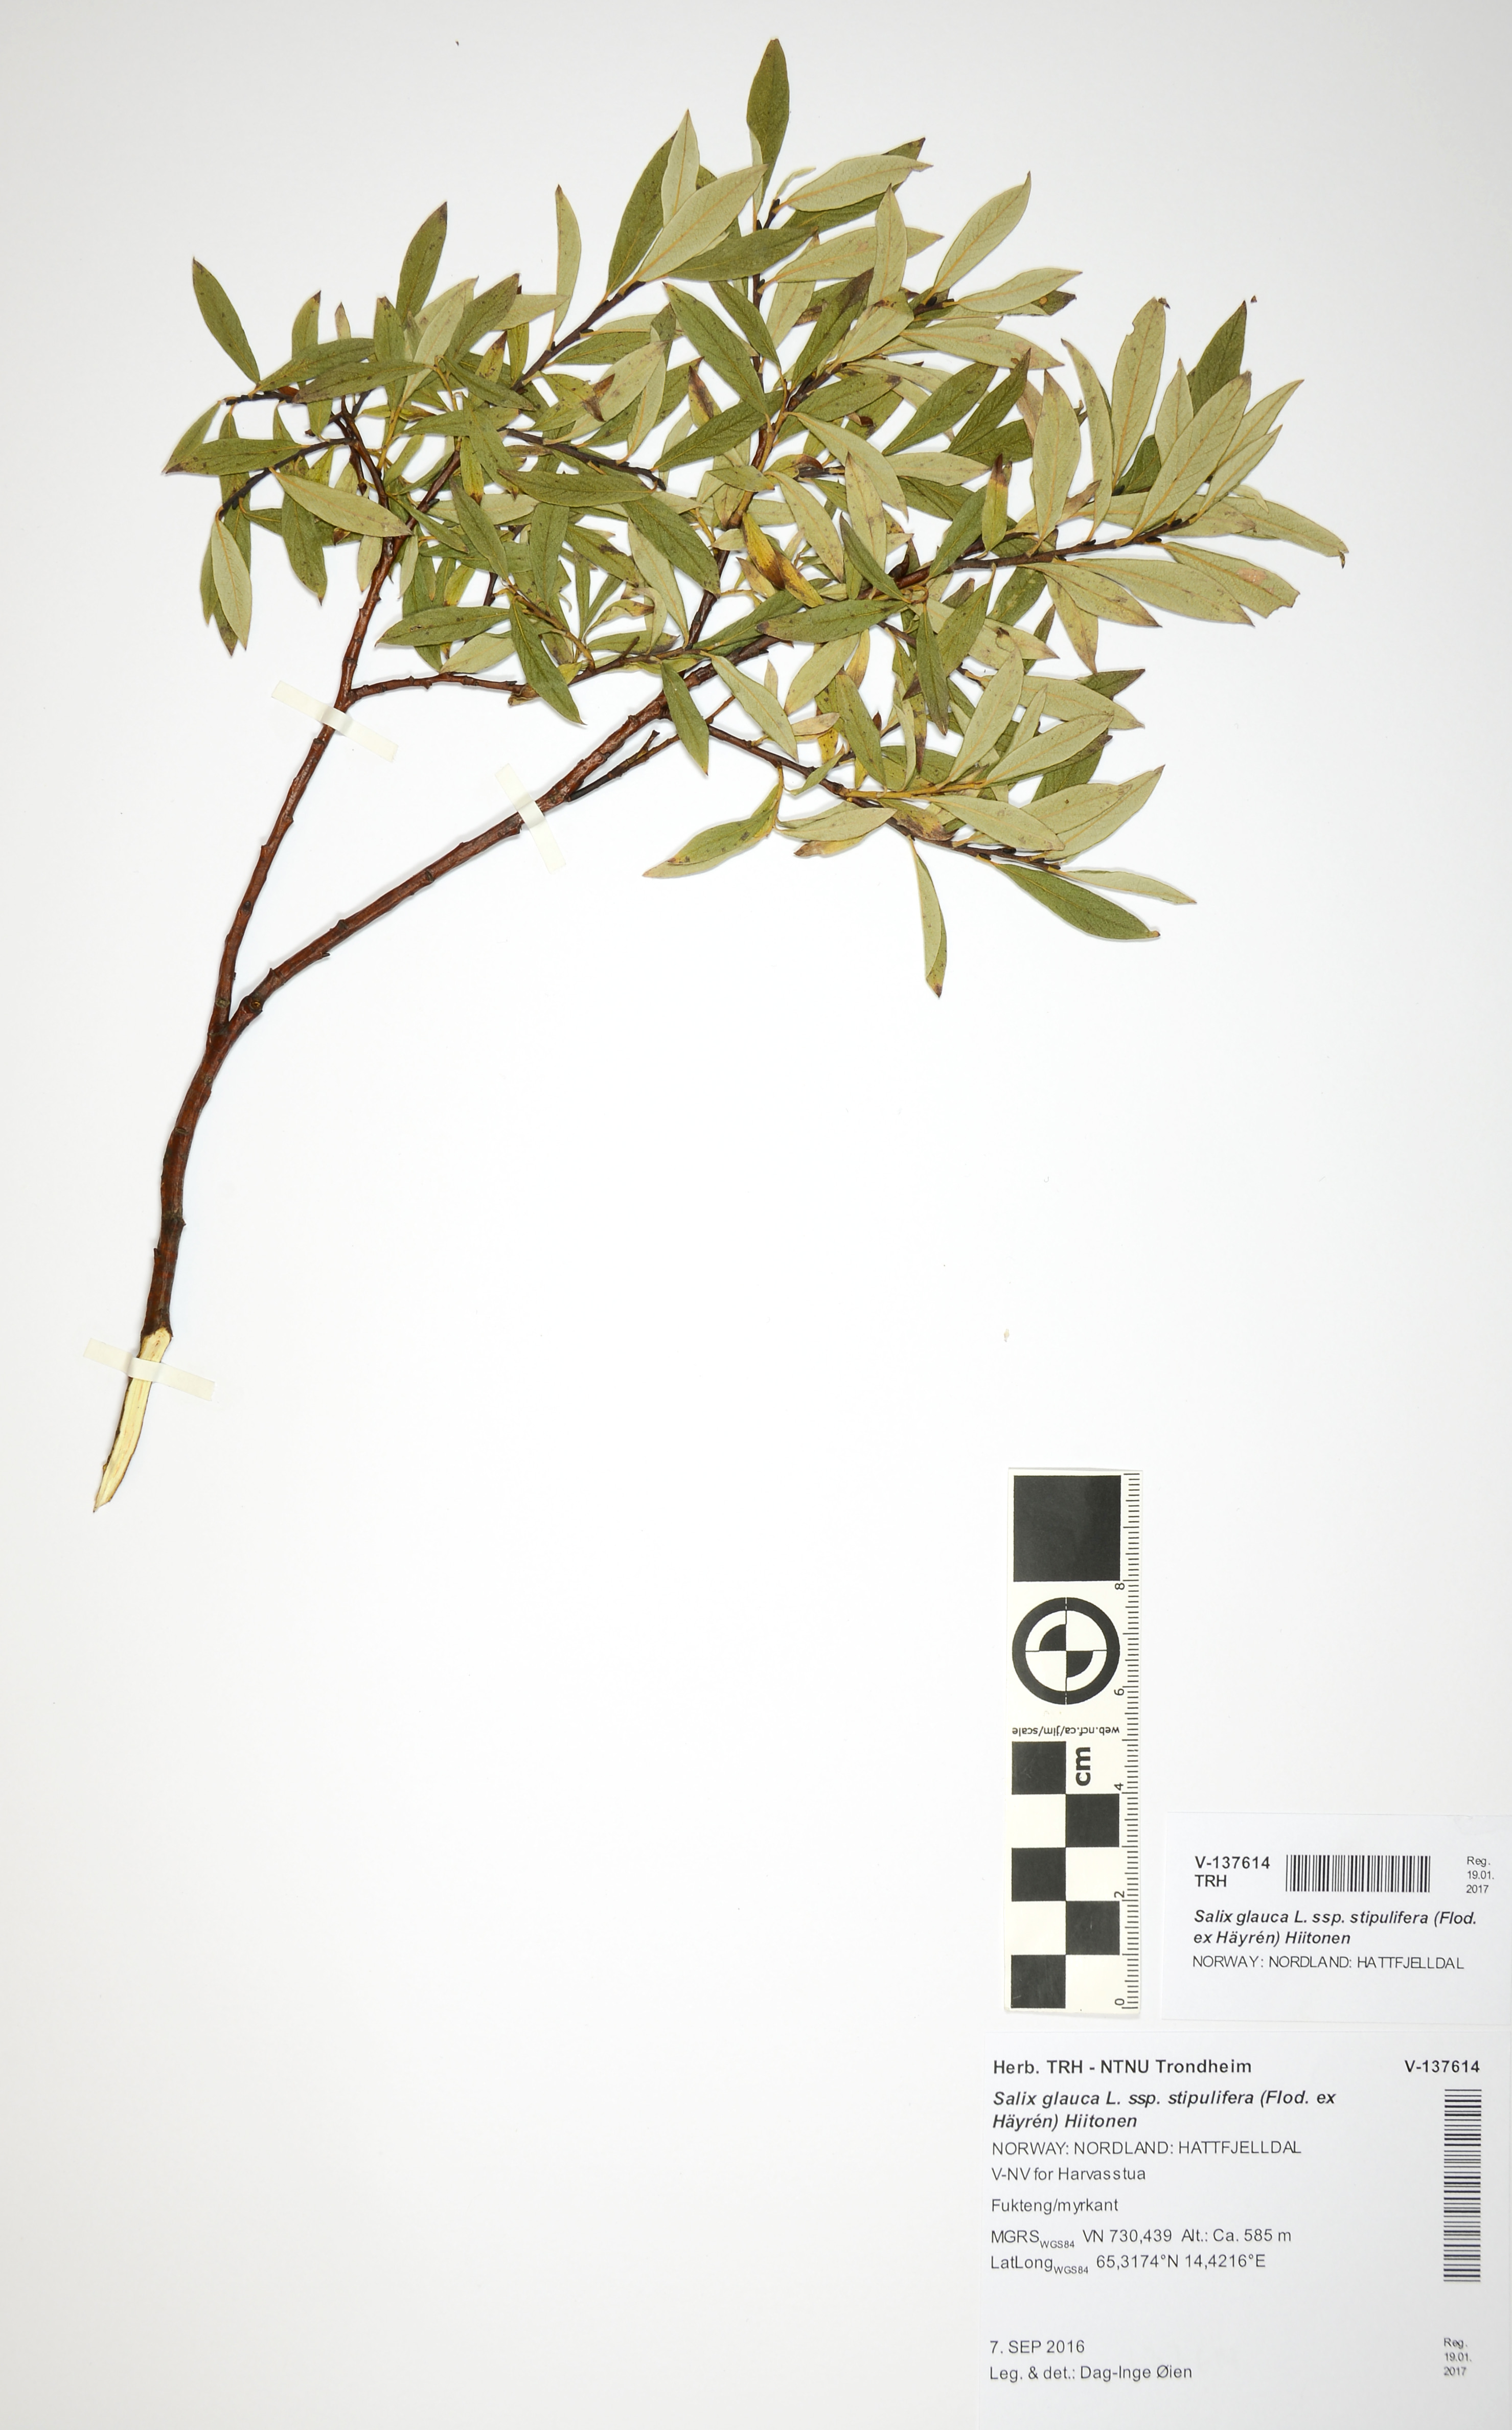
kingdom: Plantae
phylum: Tracheophyta
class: Magnoliopsida
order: Malpighiales
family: Salicaceae
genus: Salix
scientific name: Salix glauca
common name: Glaucous willow
